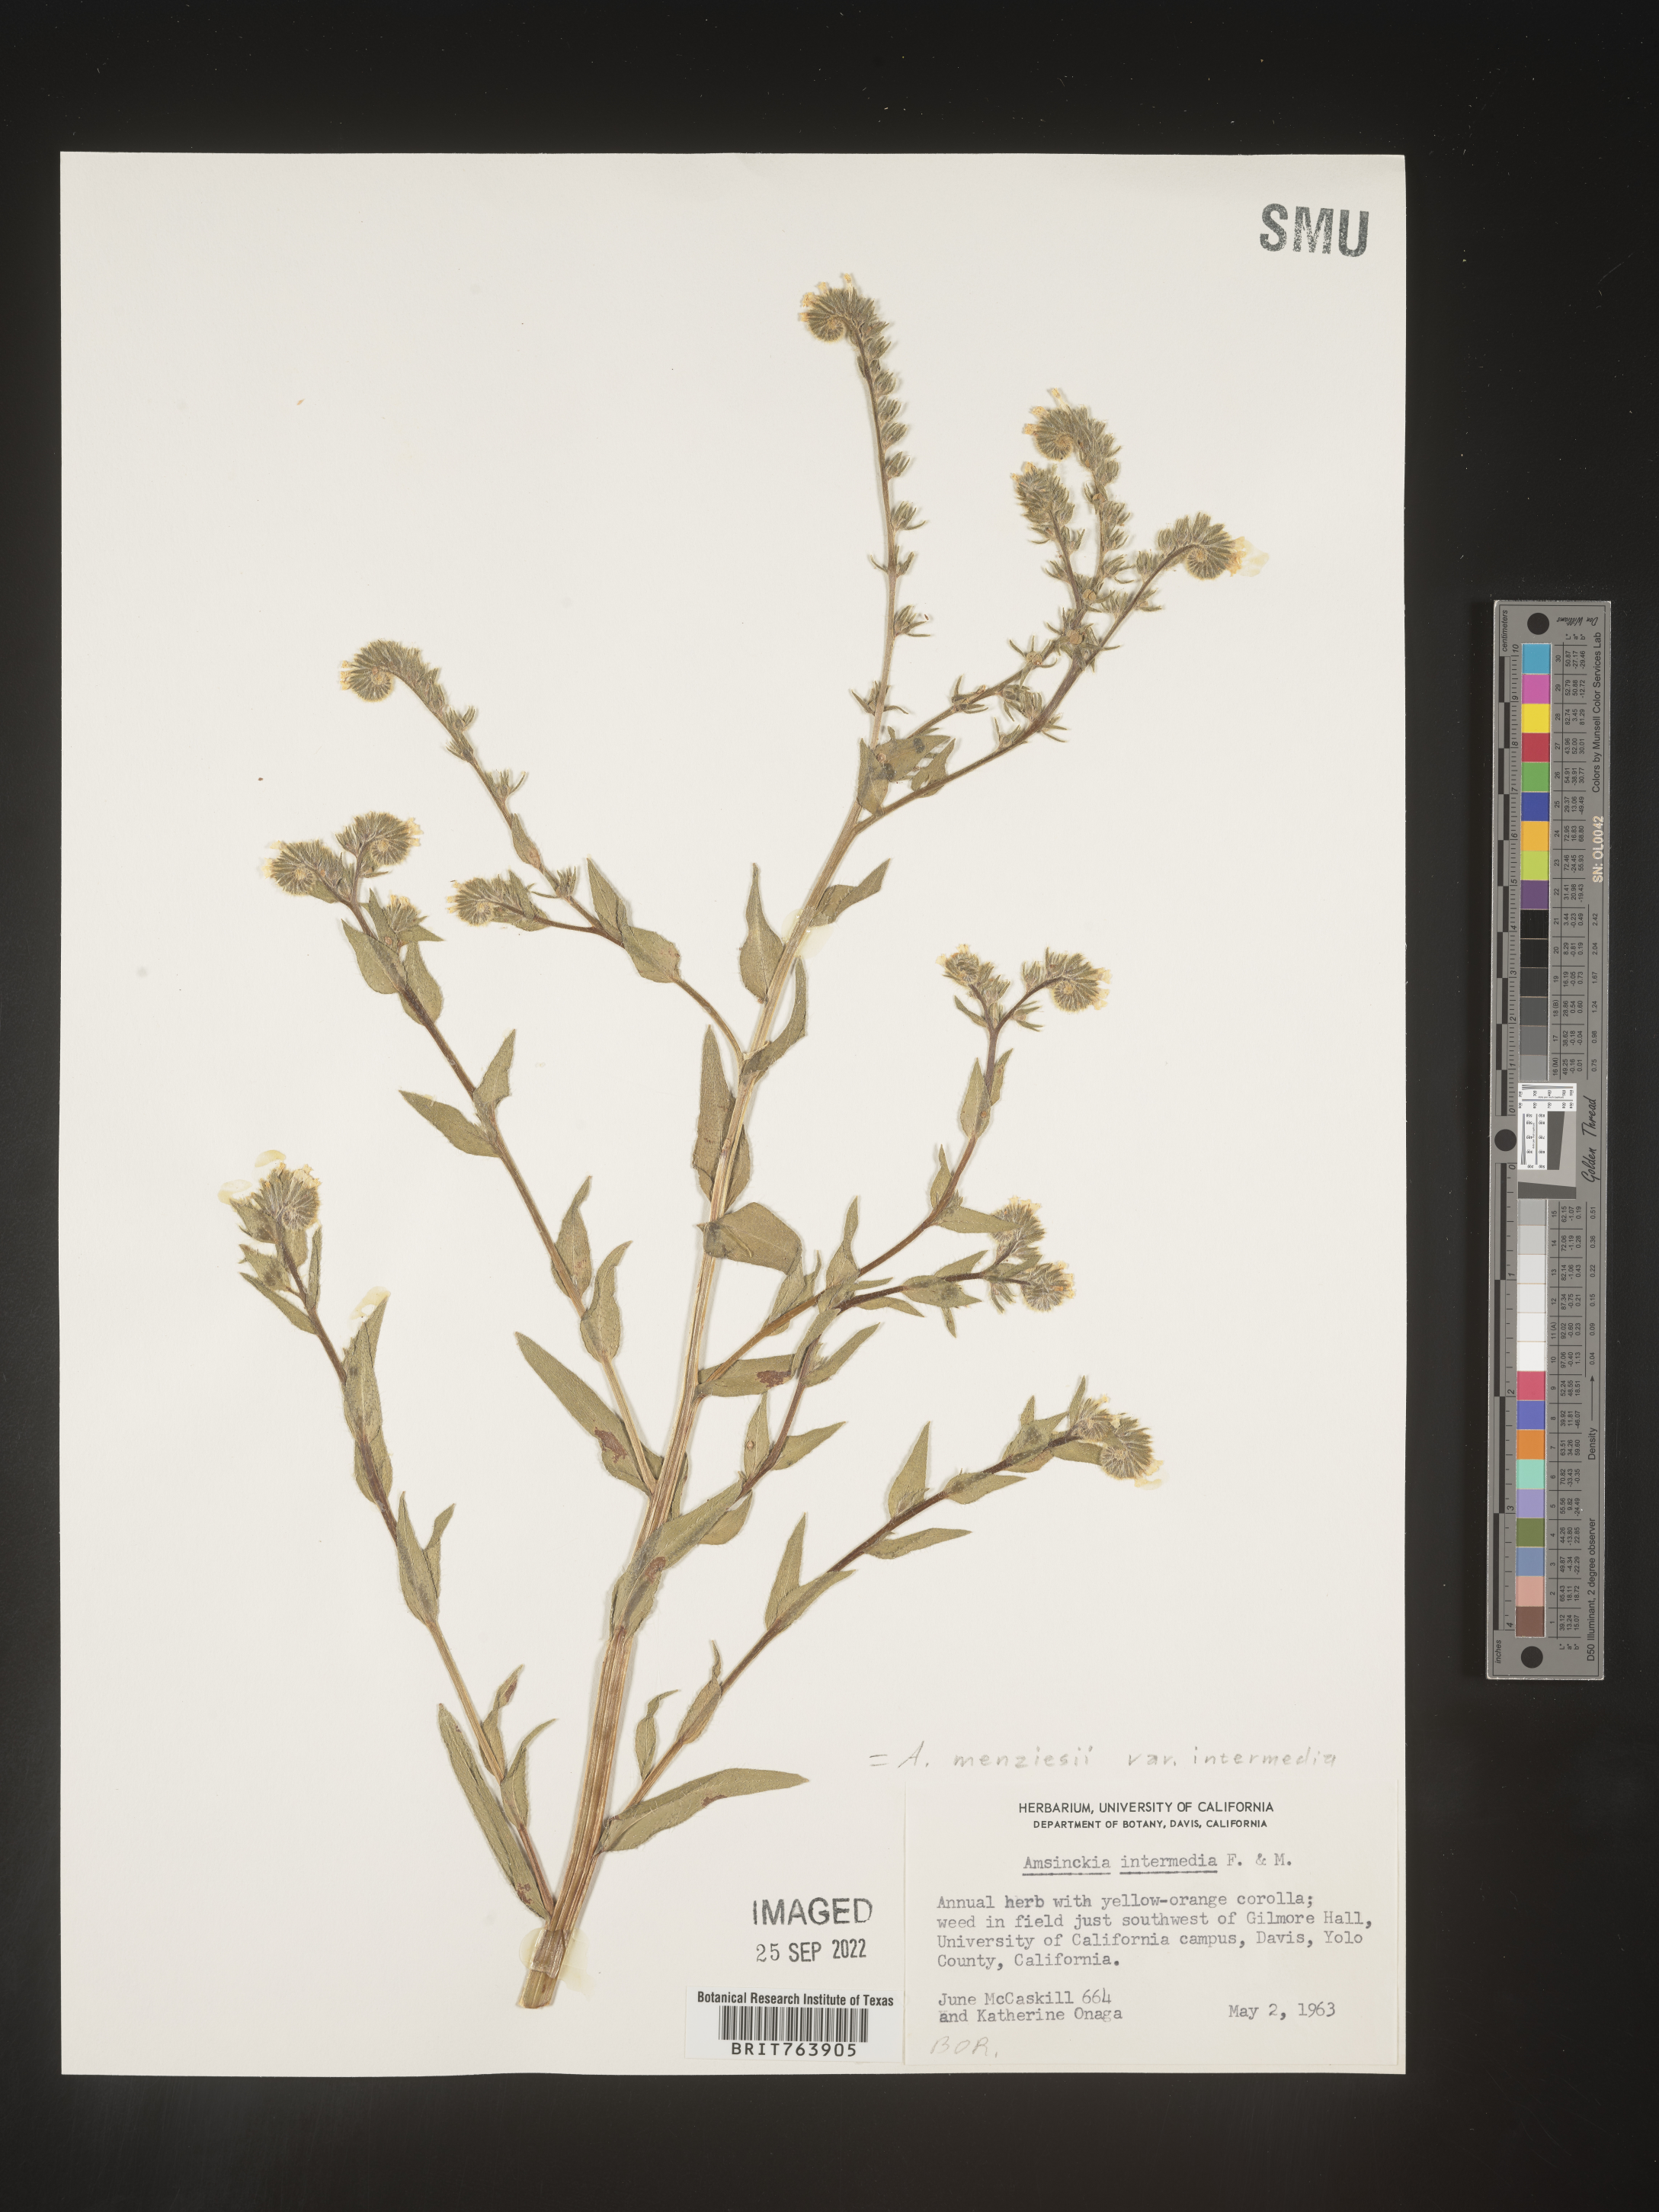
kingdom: Plantae
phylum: Tracheophyta
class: Magnoliopsida
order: Boraginales
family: Boraginaceae
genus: Amsinckia
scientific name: Amsinckia menziesii
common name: Menzies' fiddleneck
